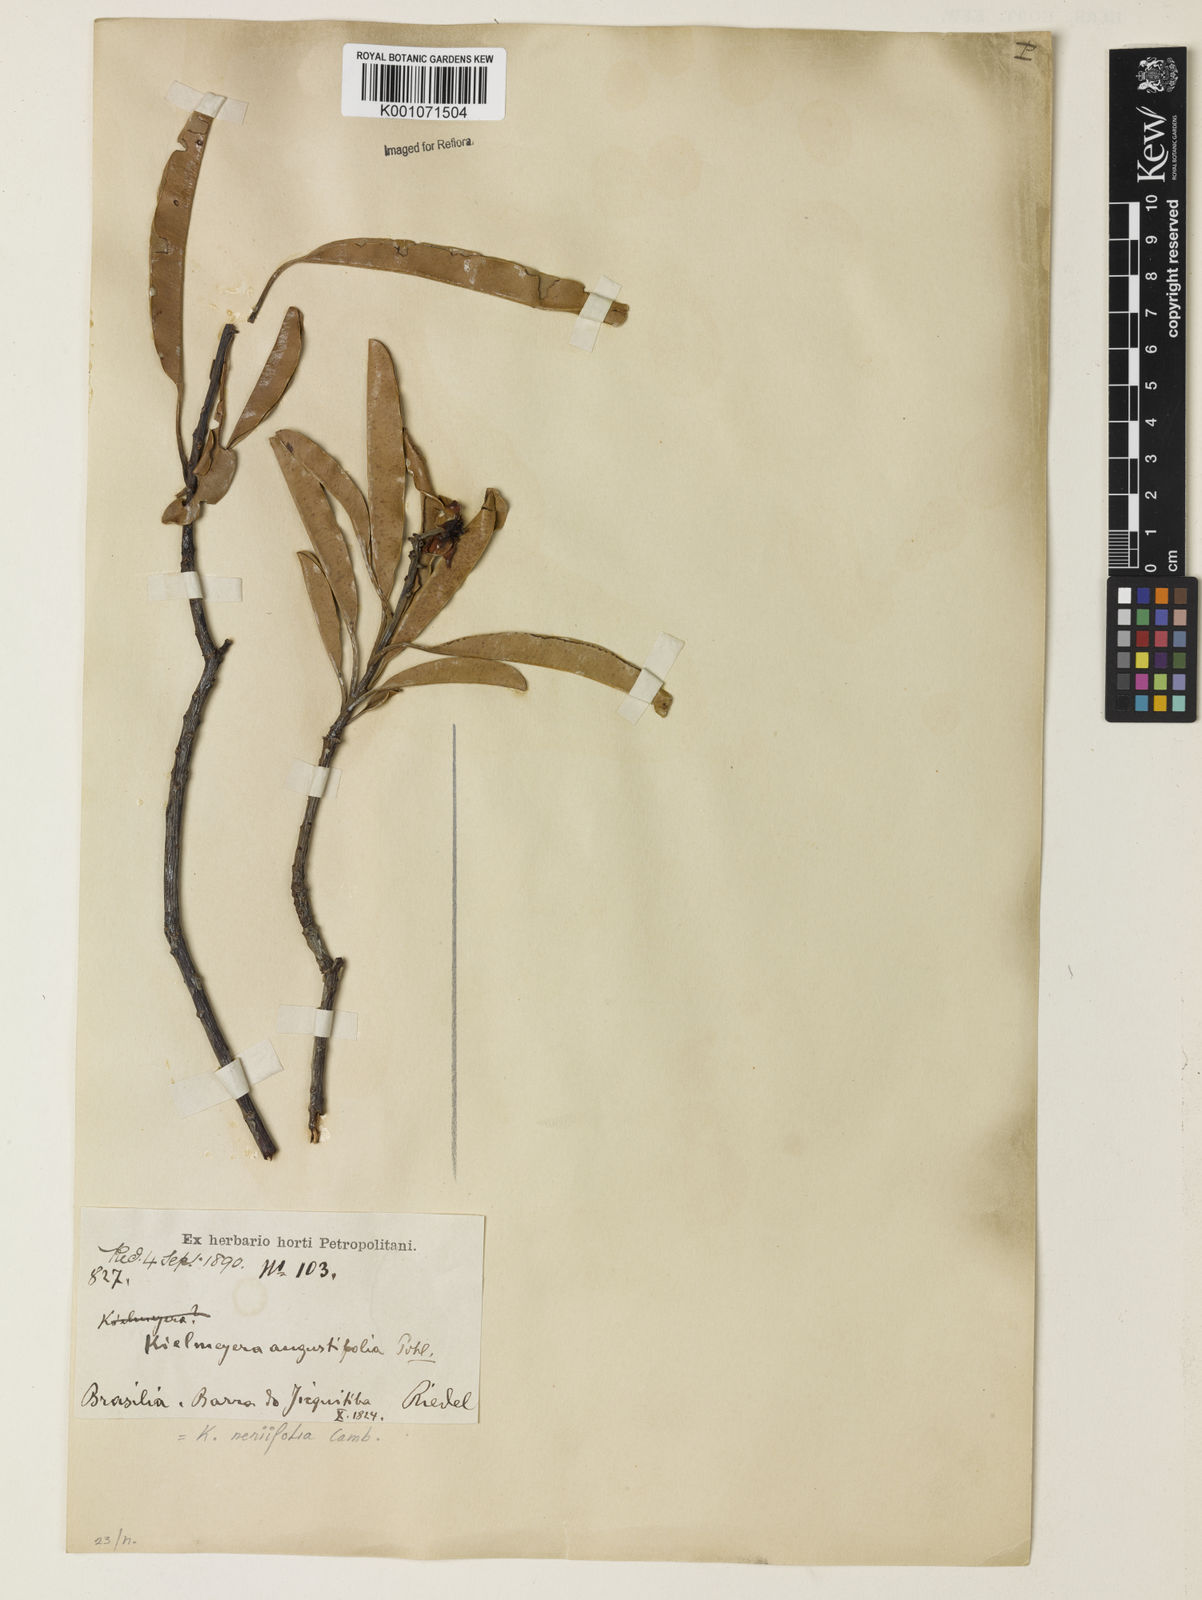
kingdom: Plantae
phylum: Tracheophyta
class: Magnoliopsida
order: Malpighiales
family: Calophyllaceae
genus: Kielmeyera
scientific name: Kielmeyera neriifolia
